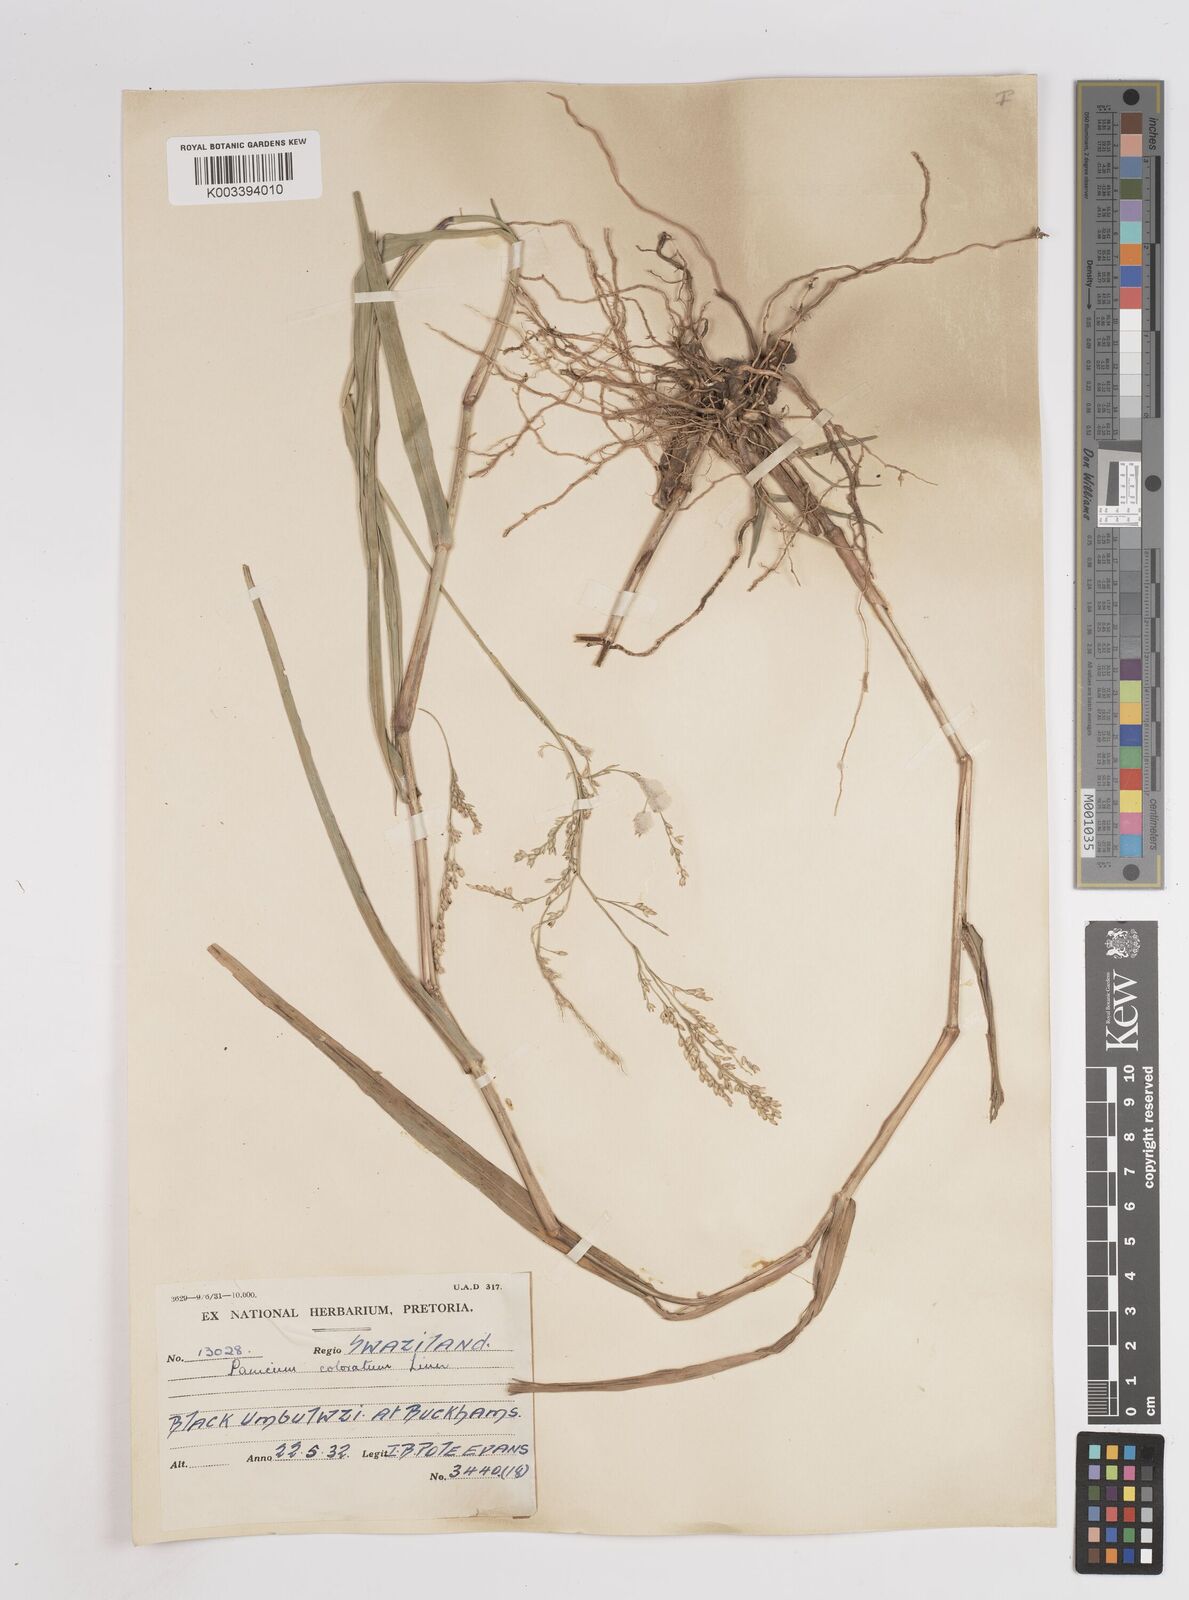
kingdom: Plantae
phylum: Tracheophyta
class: Liliopsida
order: Poales
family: Poaceae
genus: Panicum
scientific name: Panicum coloratum
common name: Kleingrass
